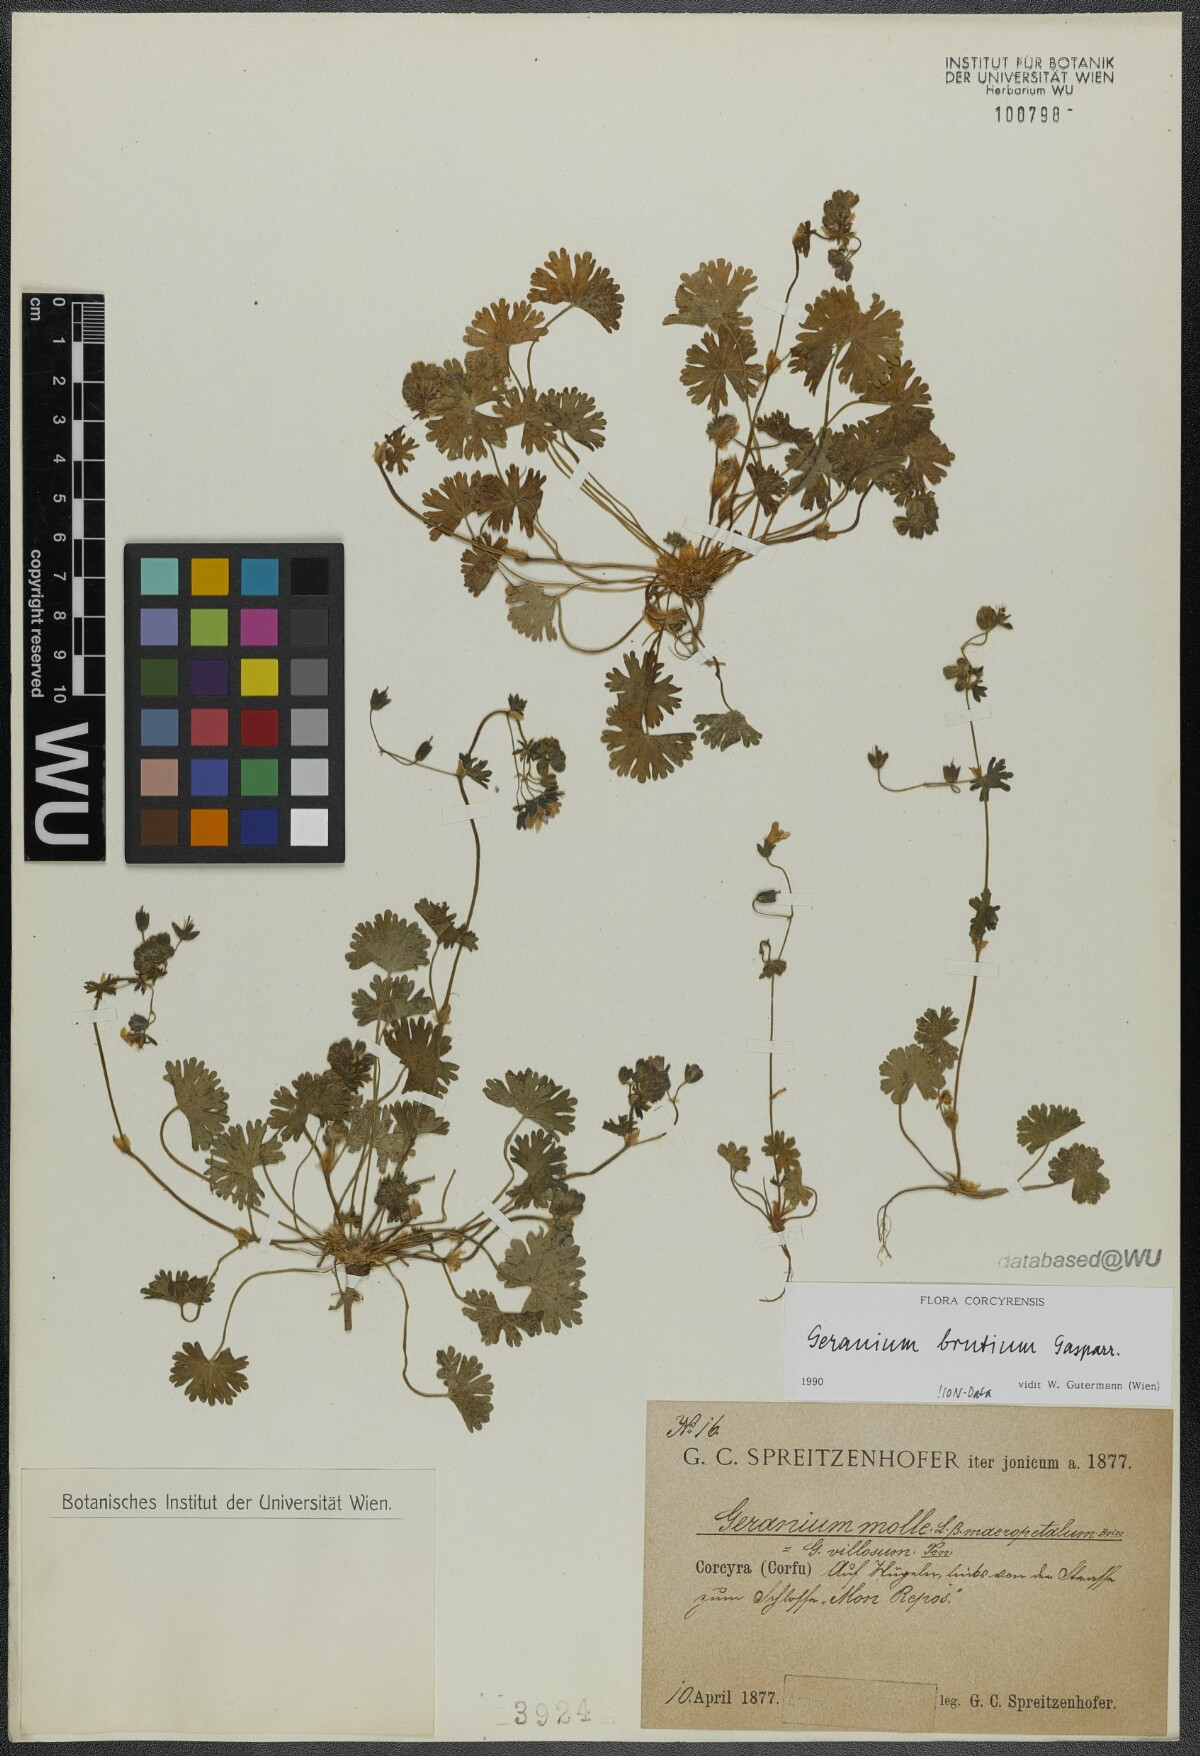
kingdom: Plantae
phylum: Tracheophyta
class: Magnoliopsida
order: Geraniales
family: Geraniaceae
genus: Geranium
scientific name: Geranium molle
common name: Dove's-foot crane's-bill
